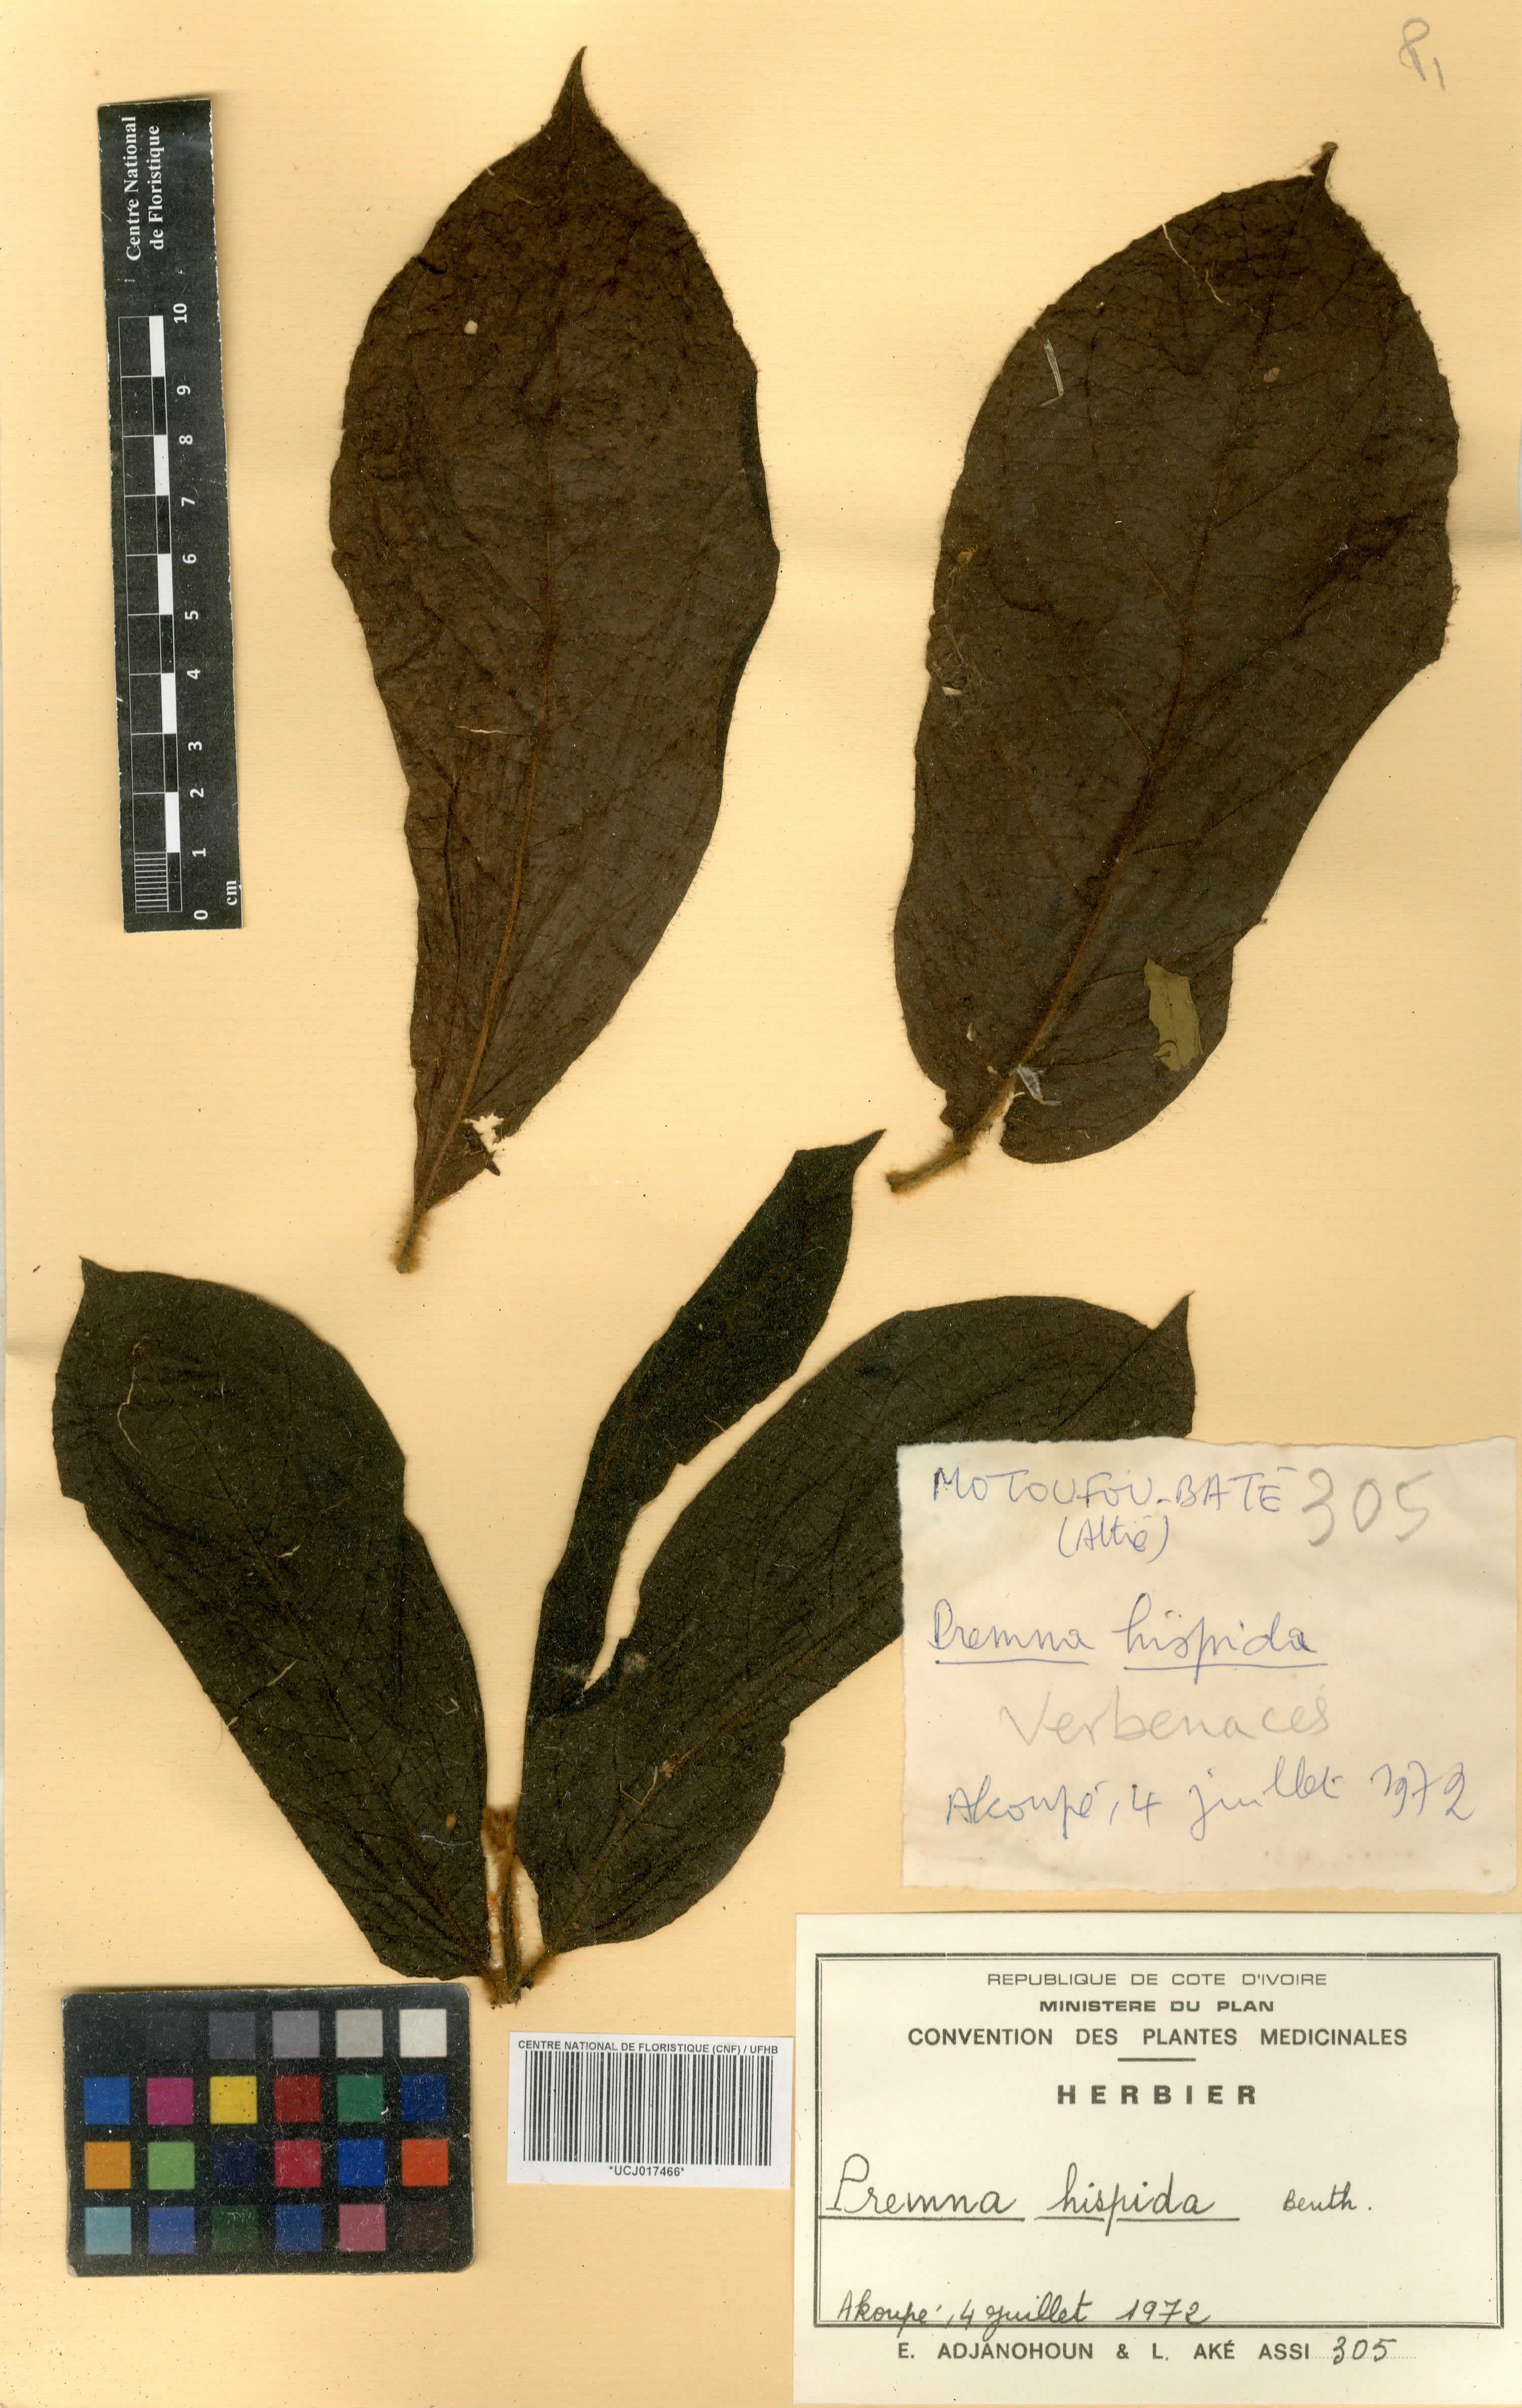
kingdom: Plantae
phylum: Tracheophyta
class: Magnoliopsida
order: Lamiales
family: Lamiaceae
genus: Premna
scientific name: Premna hispida
